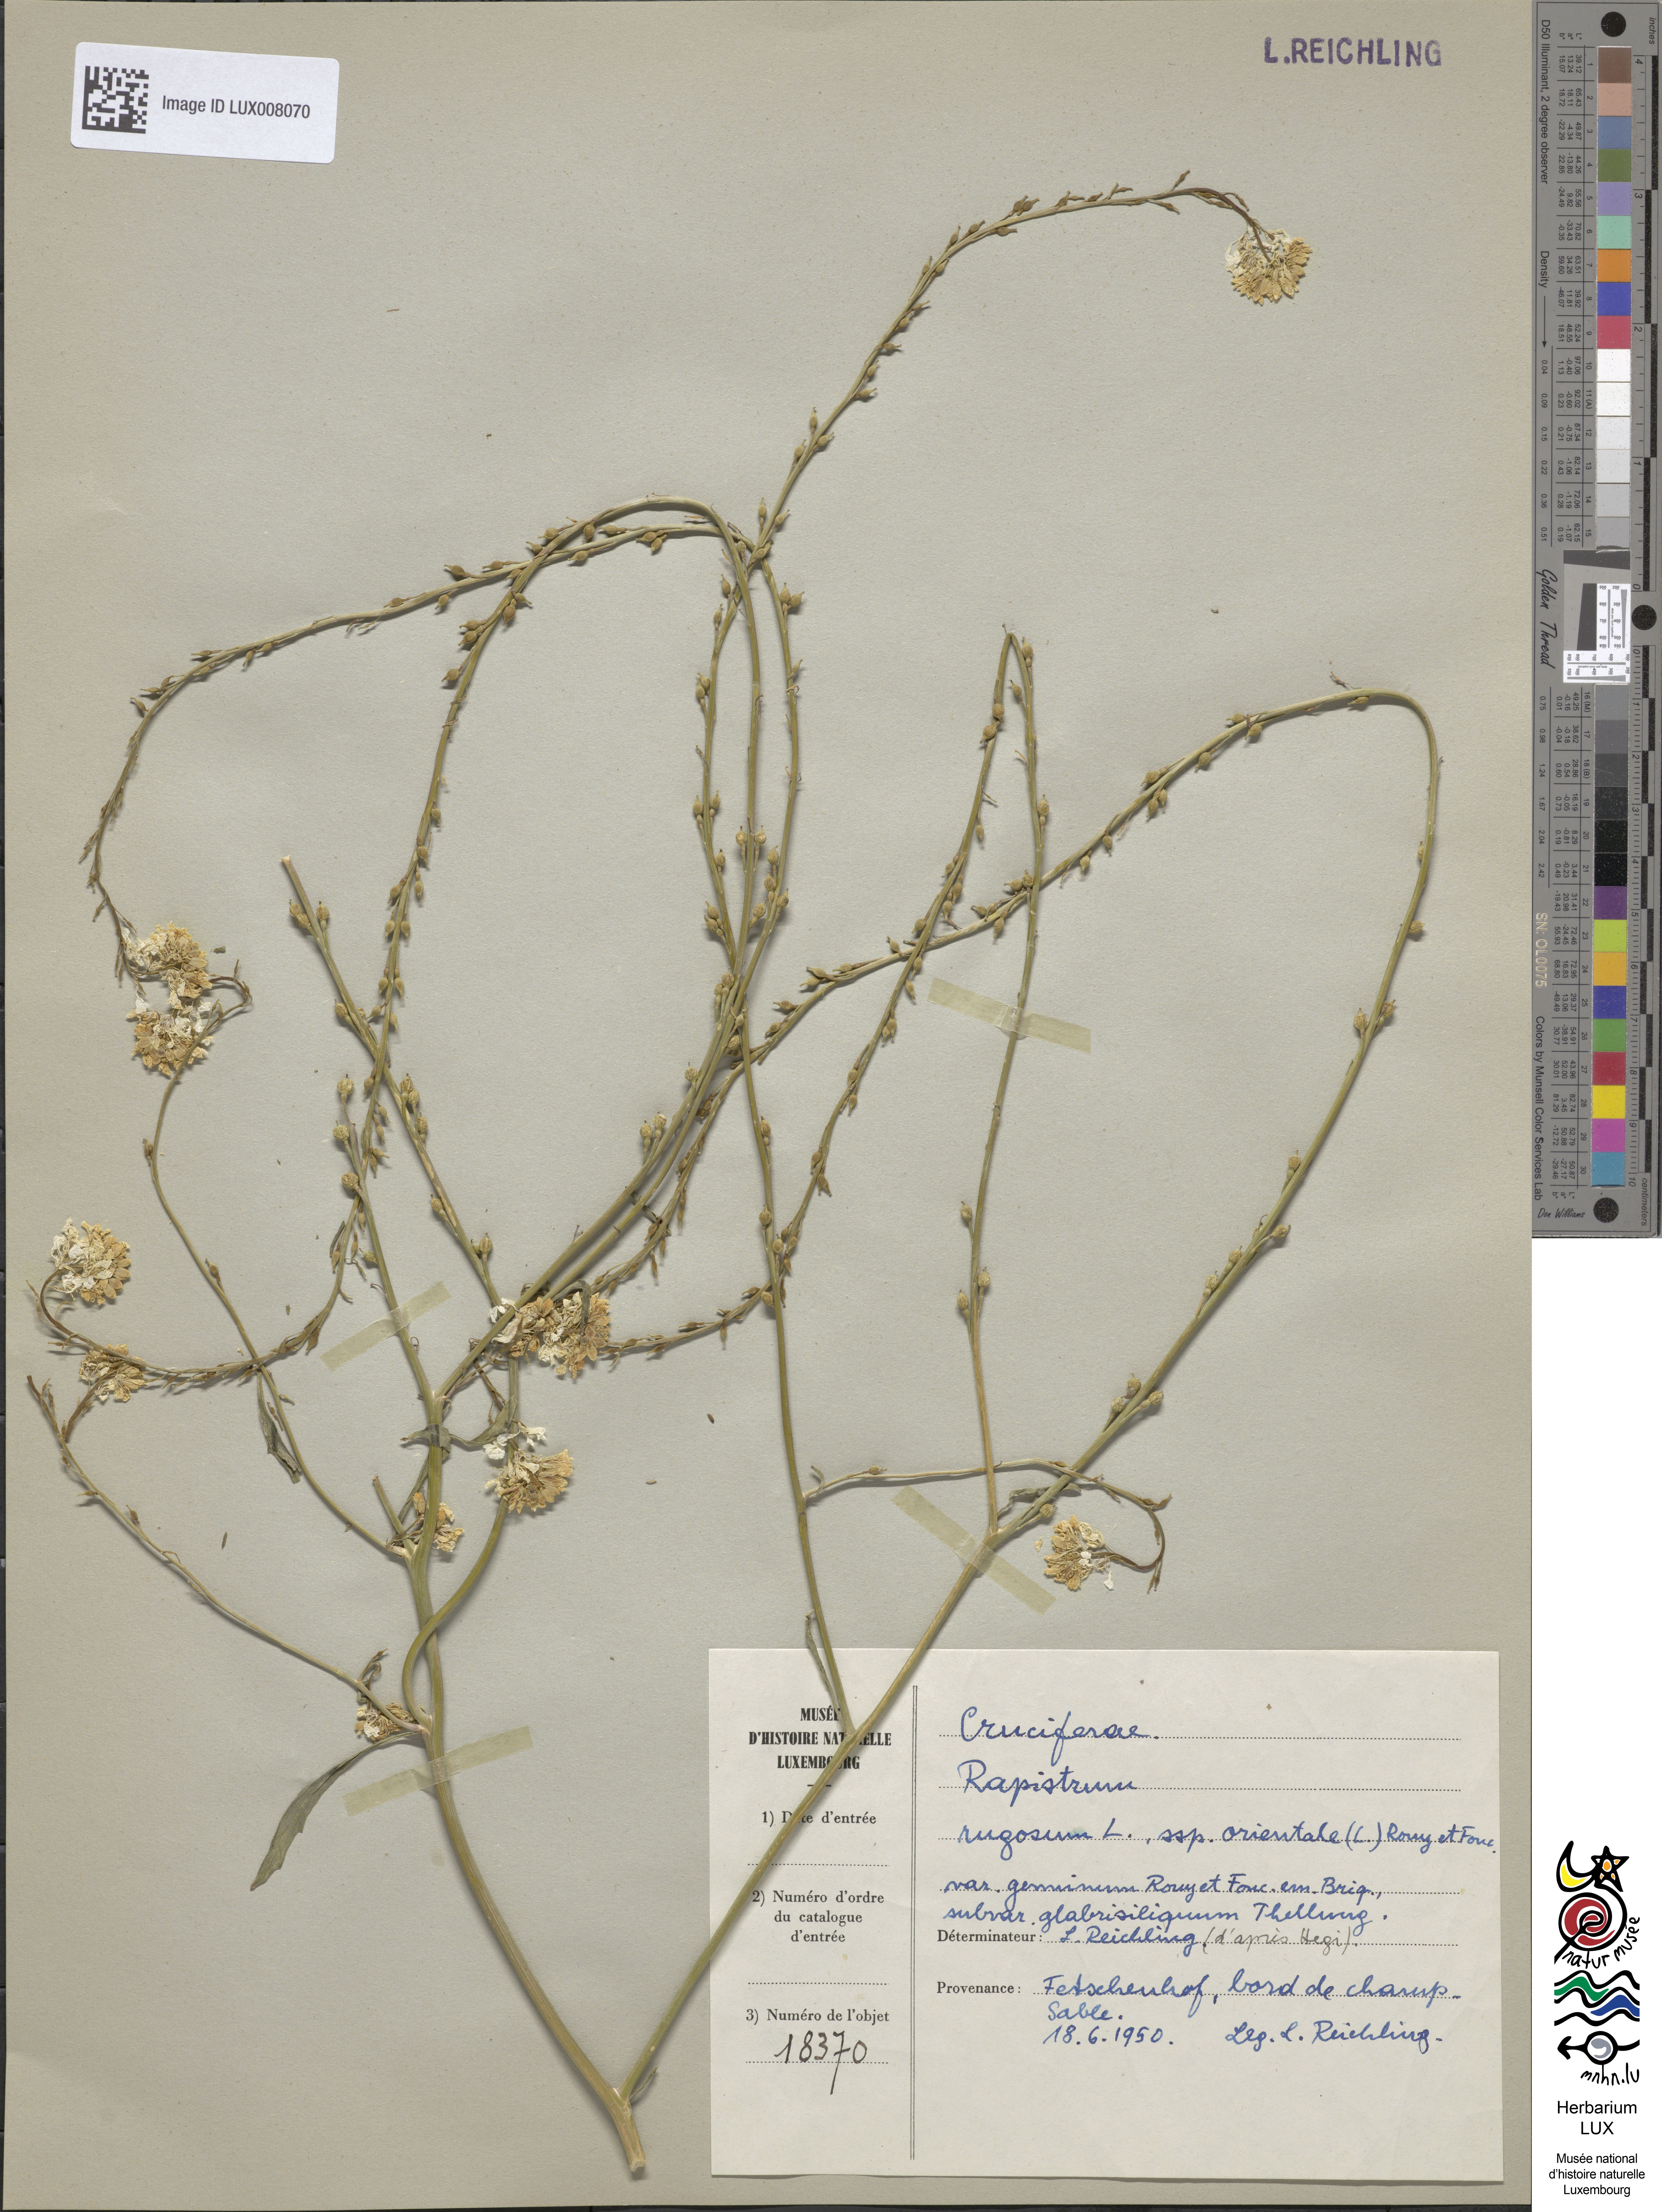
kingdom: Plantae
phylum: Tracheophyta
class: Magnoliopsida
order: Brassicales
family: Brassicaceae
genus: Rapistrum
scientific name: Rapistrum rugosum
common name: Annual bastardcabbage
